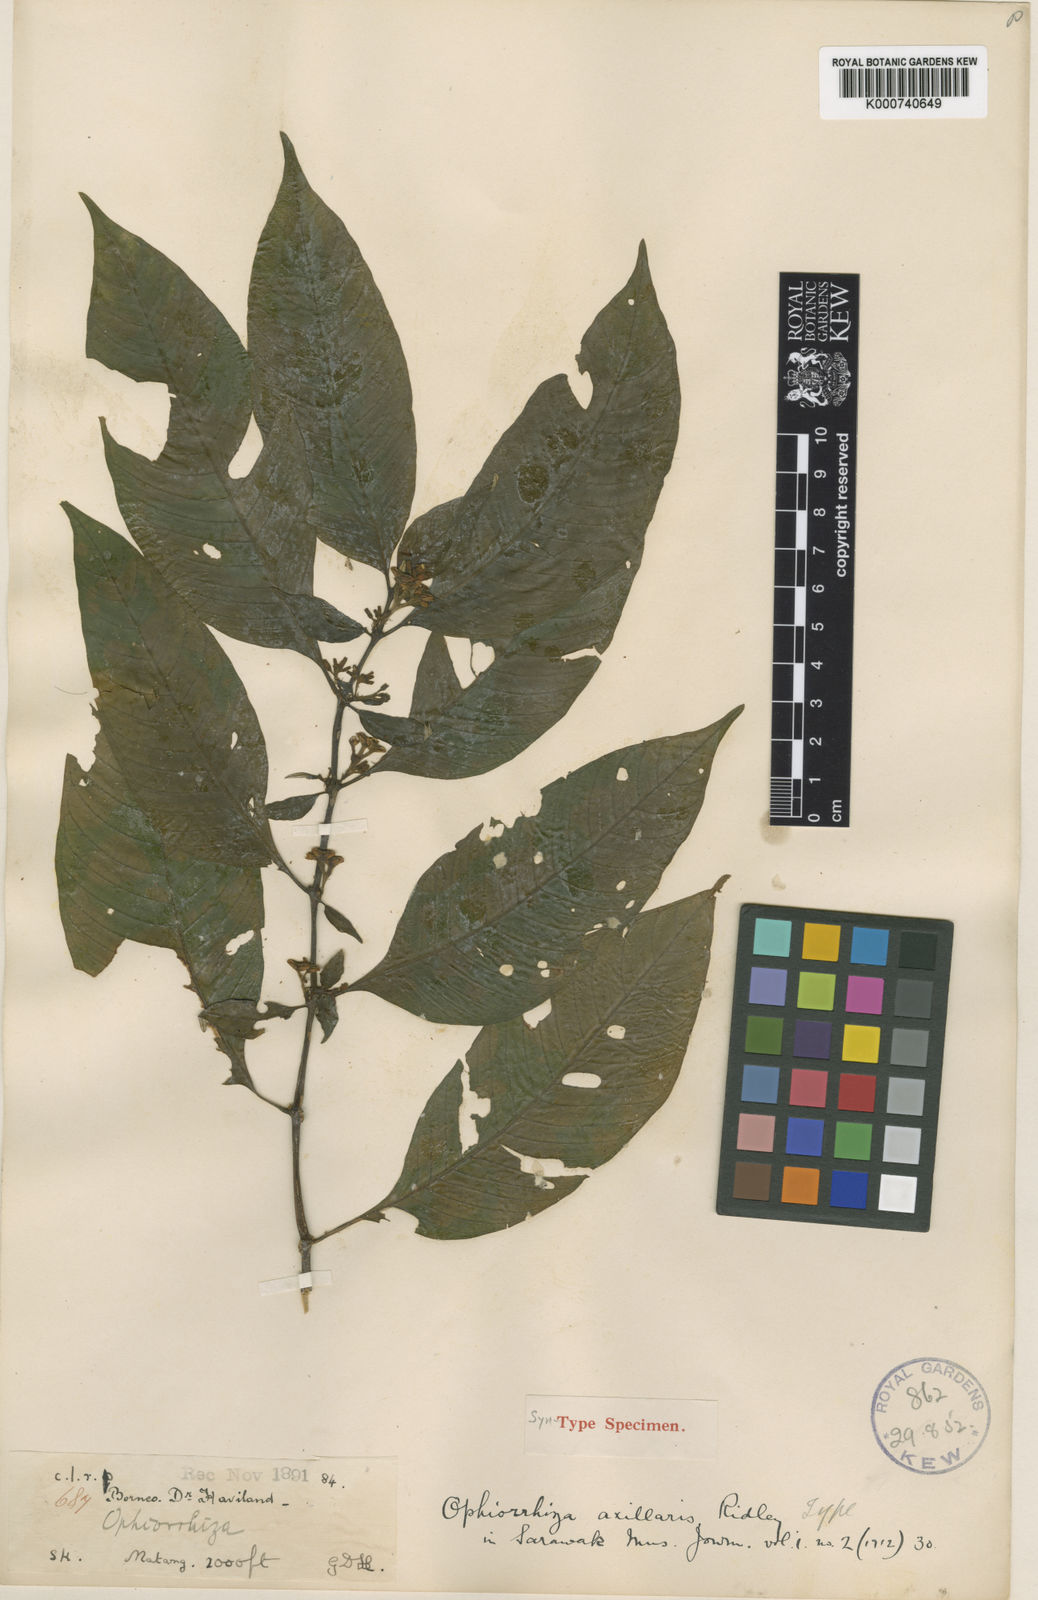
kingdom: Plantae
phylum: Tracheophyta
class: Magnoliopsida
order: Gentianales
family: Rubiaceae
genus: Ophiorrhiza
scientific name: Ophiorrhiza axillaris
